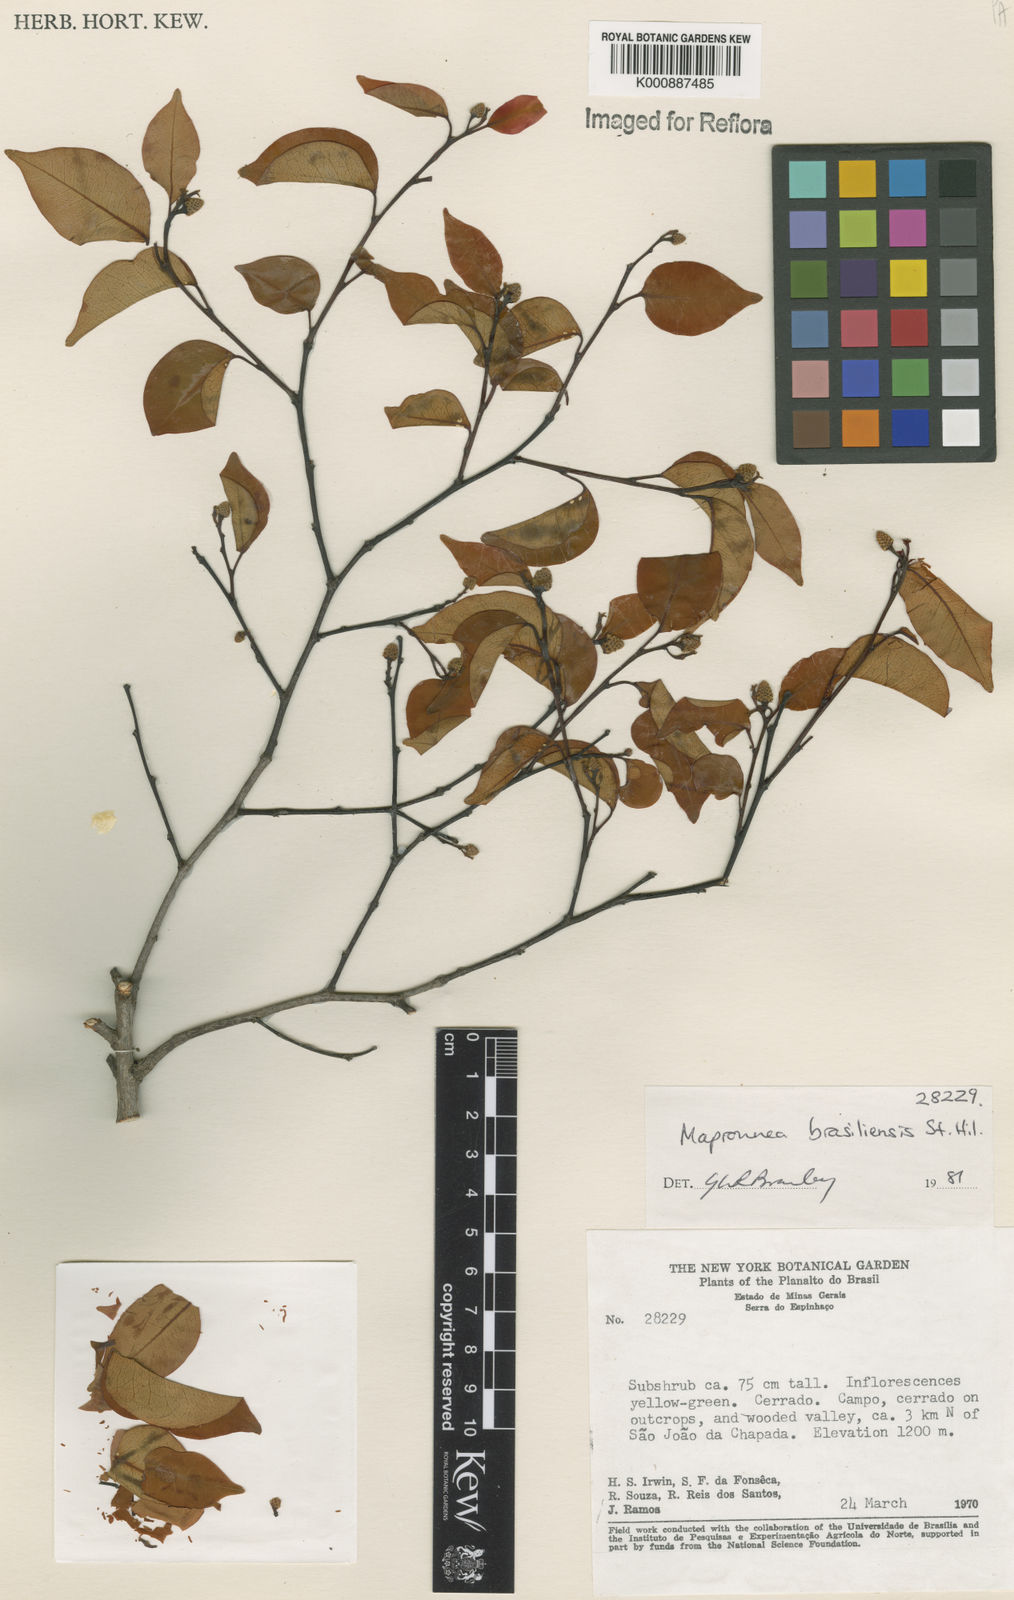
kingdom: Plantae
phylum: Tracheophyta
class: Magnoliopsida
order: Malpighiales
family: Euphorbiaceae
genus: Maprounea
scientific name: Maprounea brasiliensis
